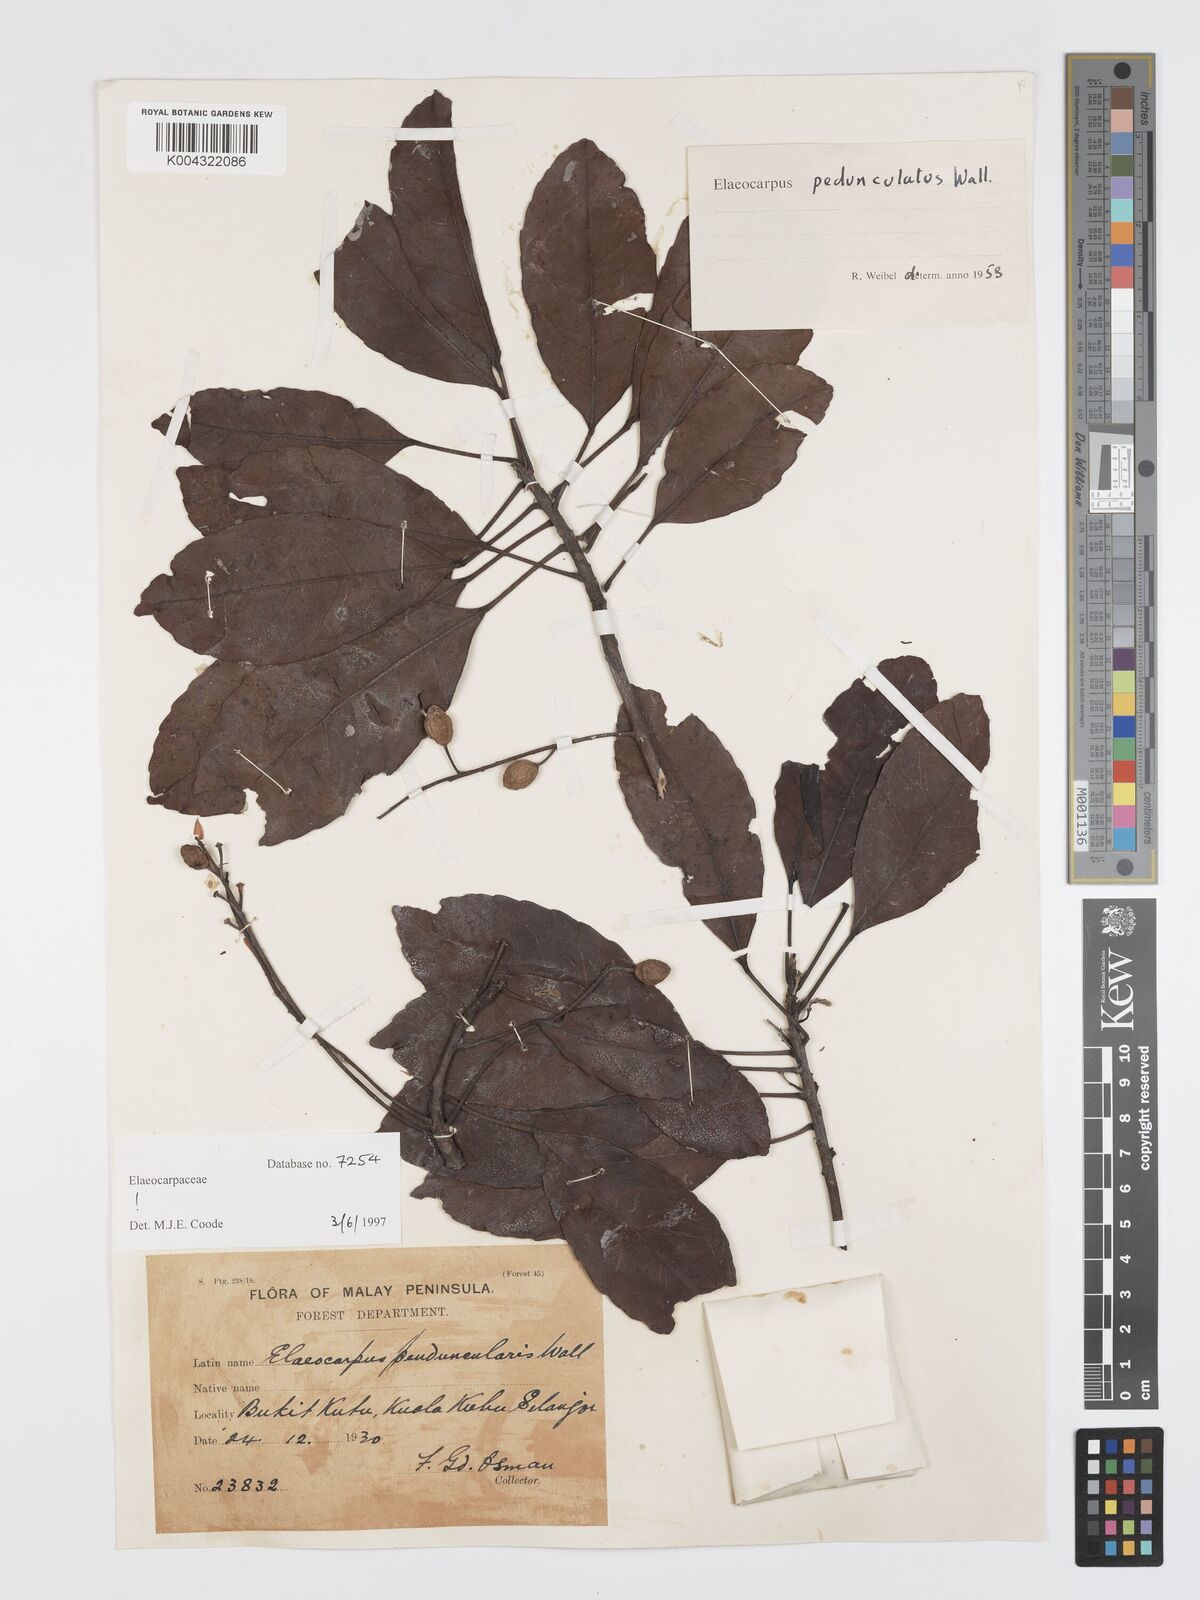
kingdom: Plantae
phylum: Tracheophyta
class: Magnoliopsida
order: Oxalidales
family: Elaeocarpaceae
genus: Elaeocarpus
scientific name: Elaeocarpus pedunculatus
